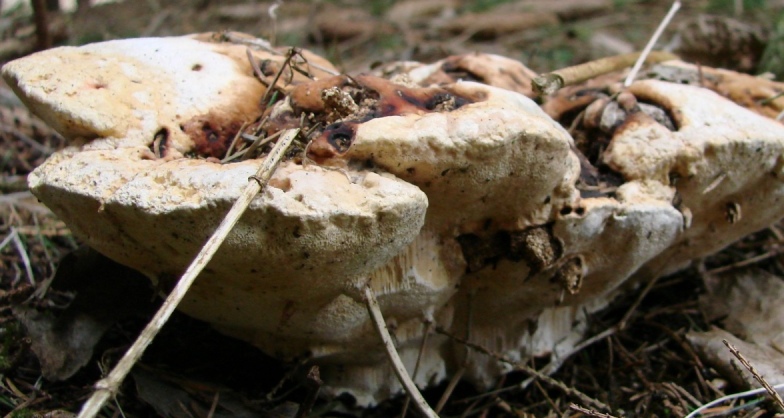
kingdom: Fungi
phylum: Basidiomycota
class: Agaricomycetes
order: Russulales
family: Bondarzewiaceae
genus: Heterobasidion
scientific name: Heterobasidion annosum
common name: almindelig rodfordærver
